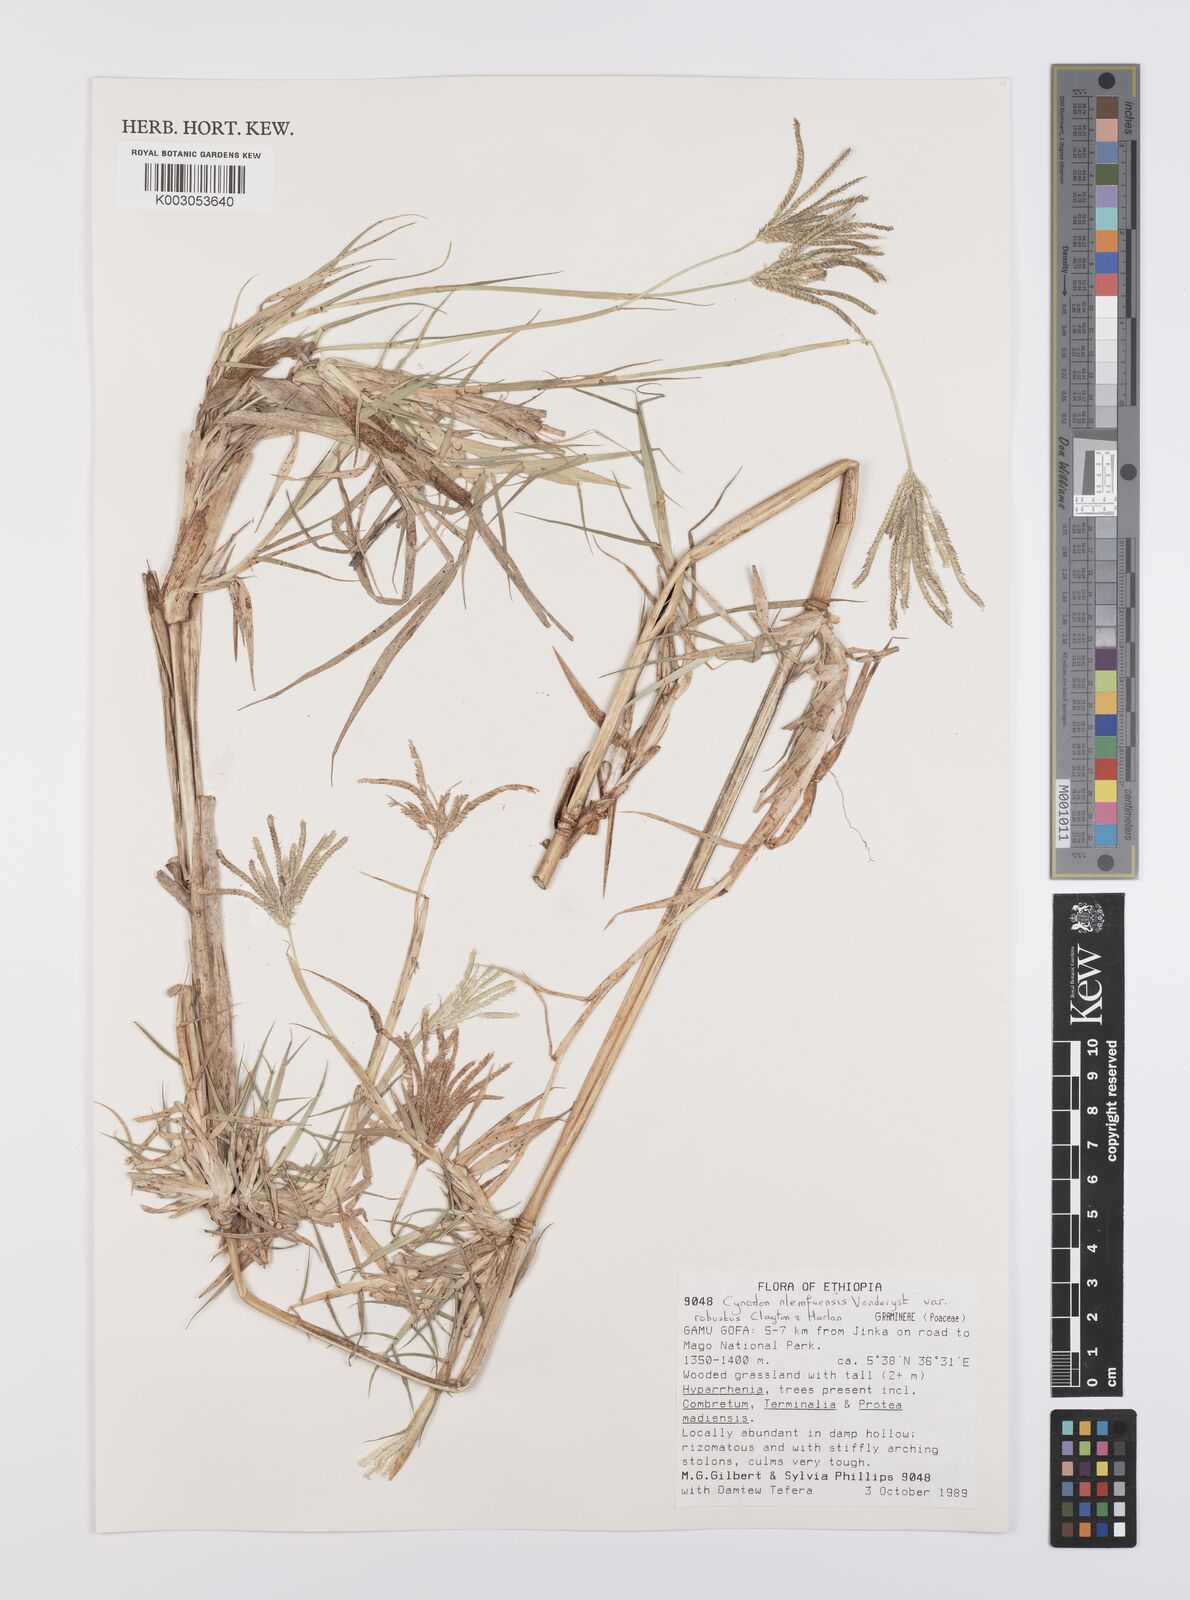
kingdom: Plantae
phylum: Tracheophyta
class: Liliopsida
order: Poales
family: Poaceae
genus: Cynodon
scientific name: Cynodon nlemfuensis
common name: African bermudagrass
